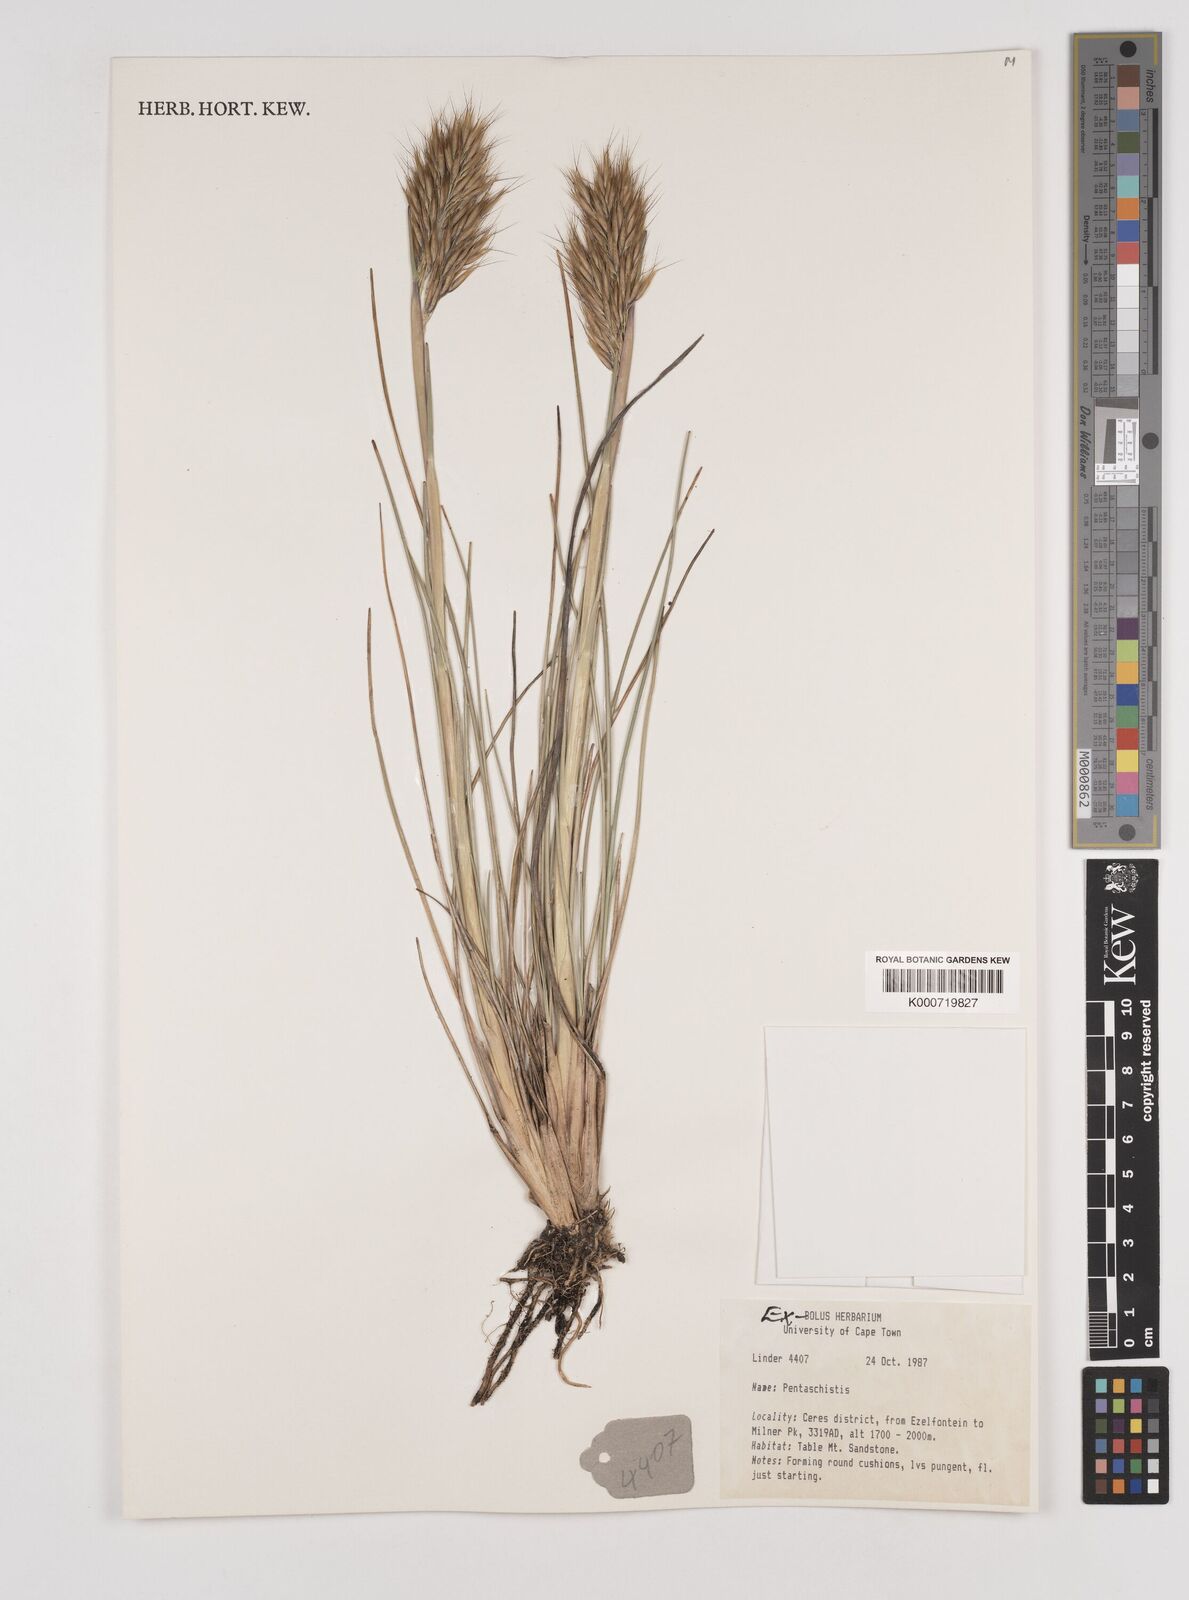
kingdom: Plantae
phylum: Tracheophyta
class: Liliopsida
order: Poales
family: Poaceae
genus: Pentaschistis
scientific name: Pentaschistis
